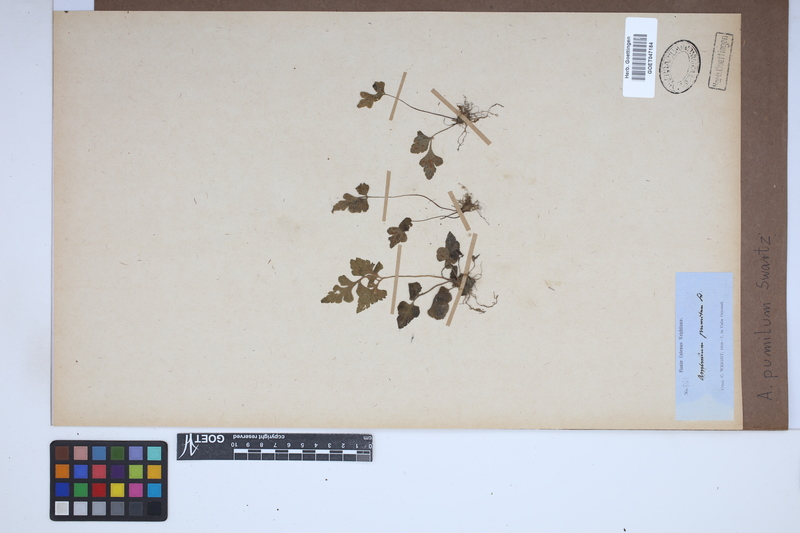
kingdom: Plantae
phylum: Tracheophyta
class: Polypodiopsida
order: Polypodiales
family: Aspleniaceae
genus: Asplenium
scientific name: Asplenium pumilum
